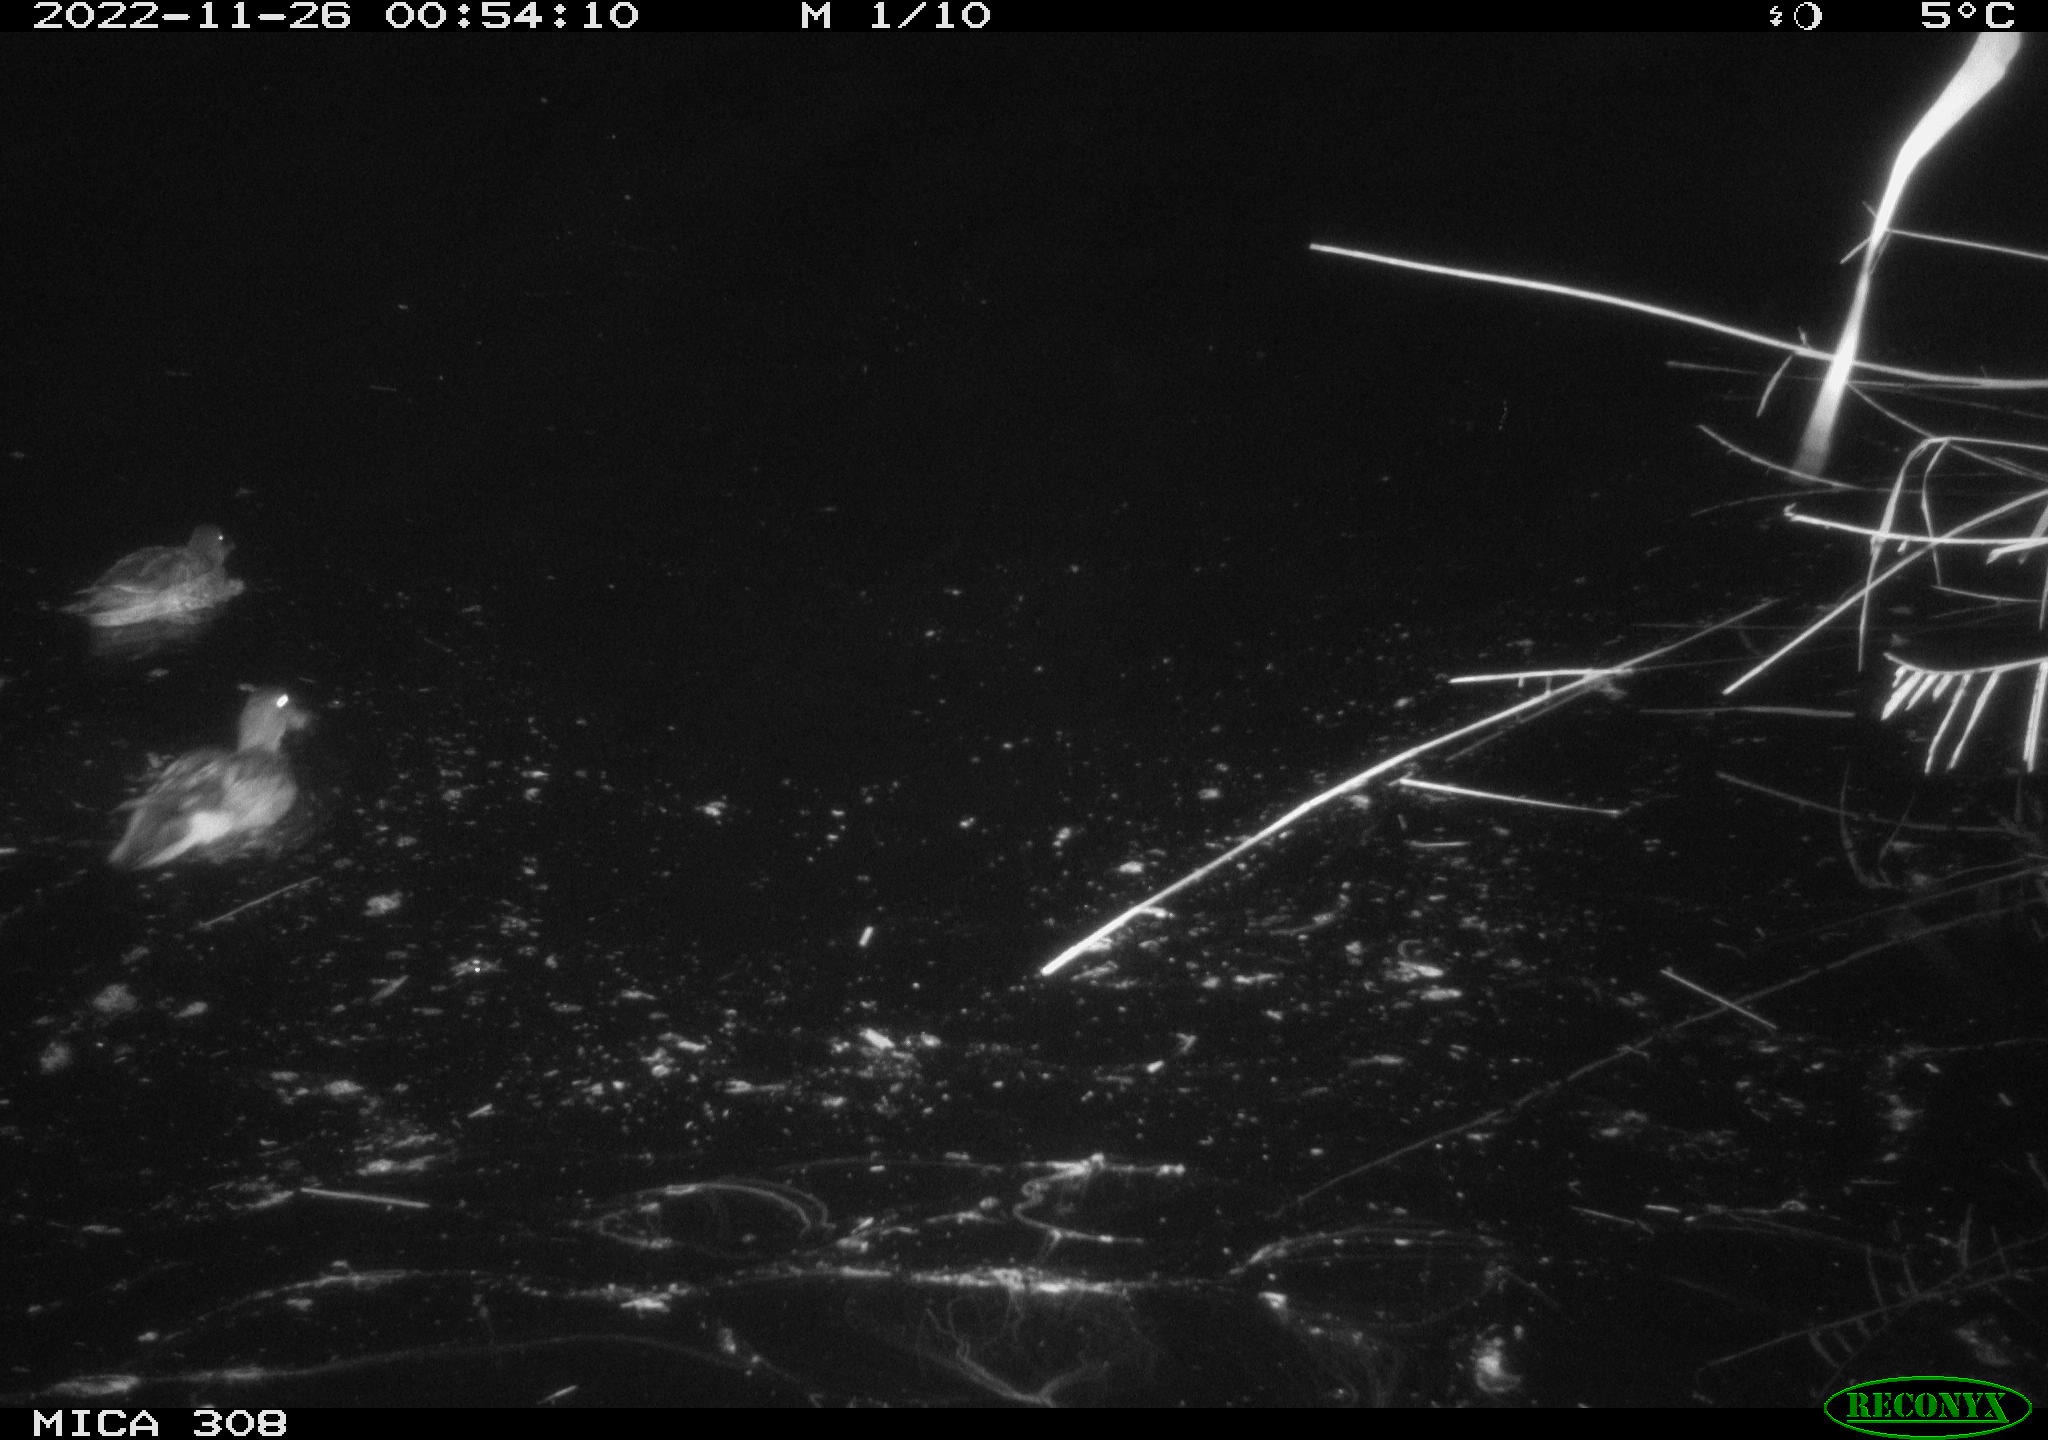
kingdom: Animalia
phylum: Chordata
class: Aves
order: Anseriformes
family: Anatidae
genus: Anas
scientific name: Anas
